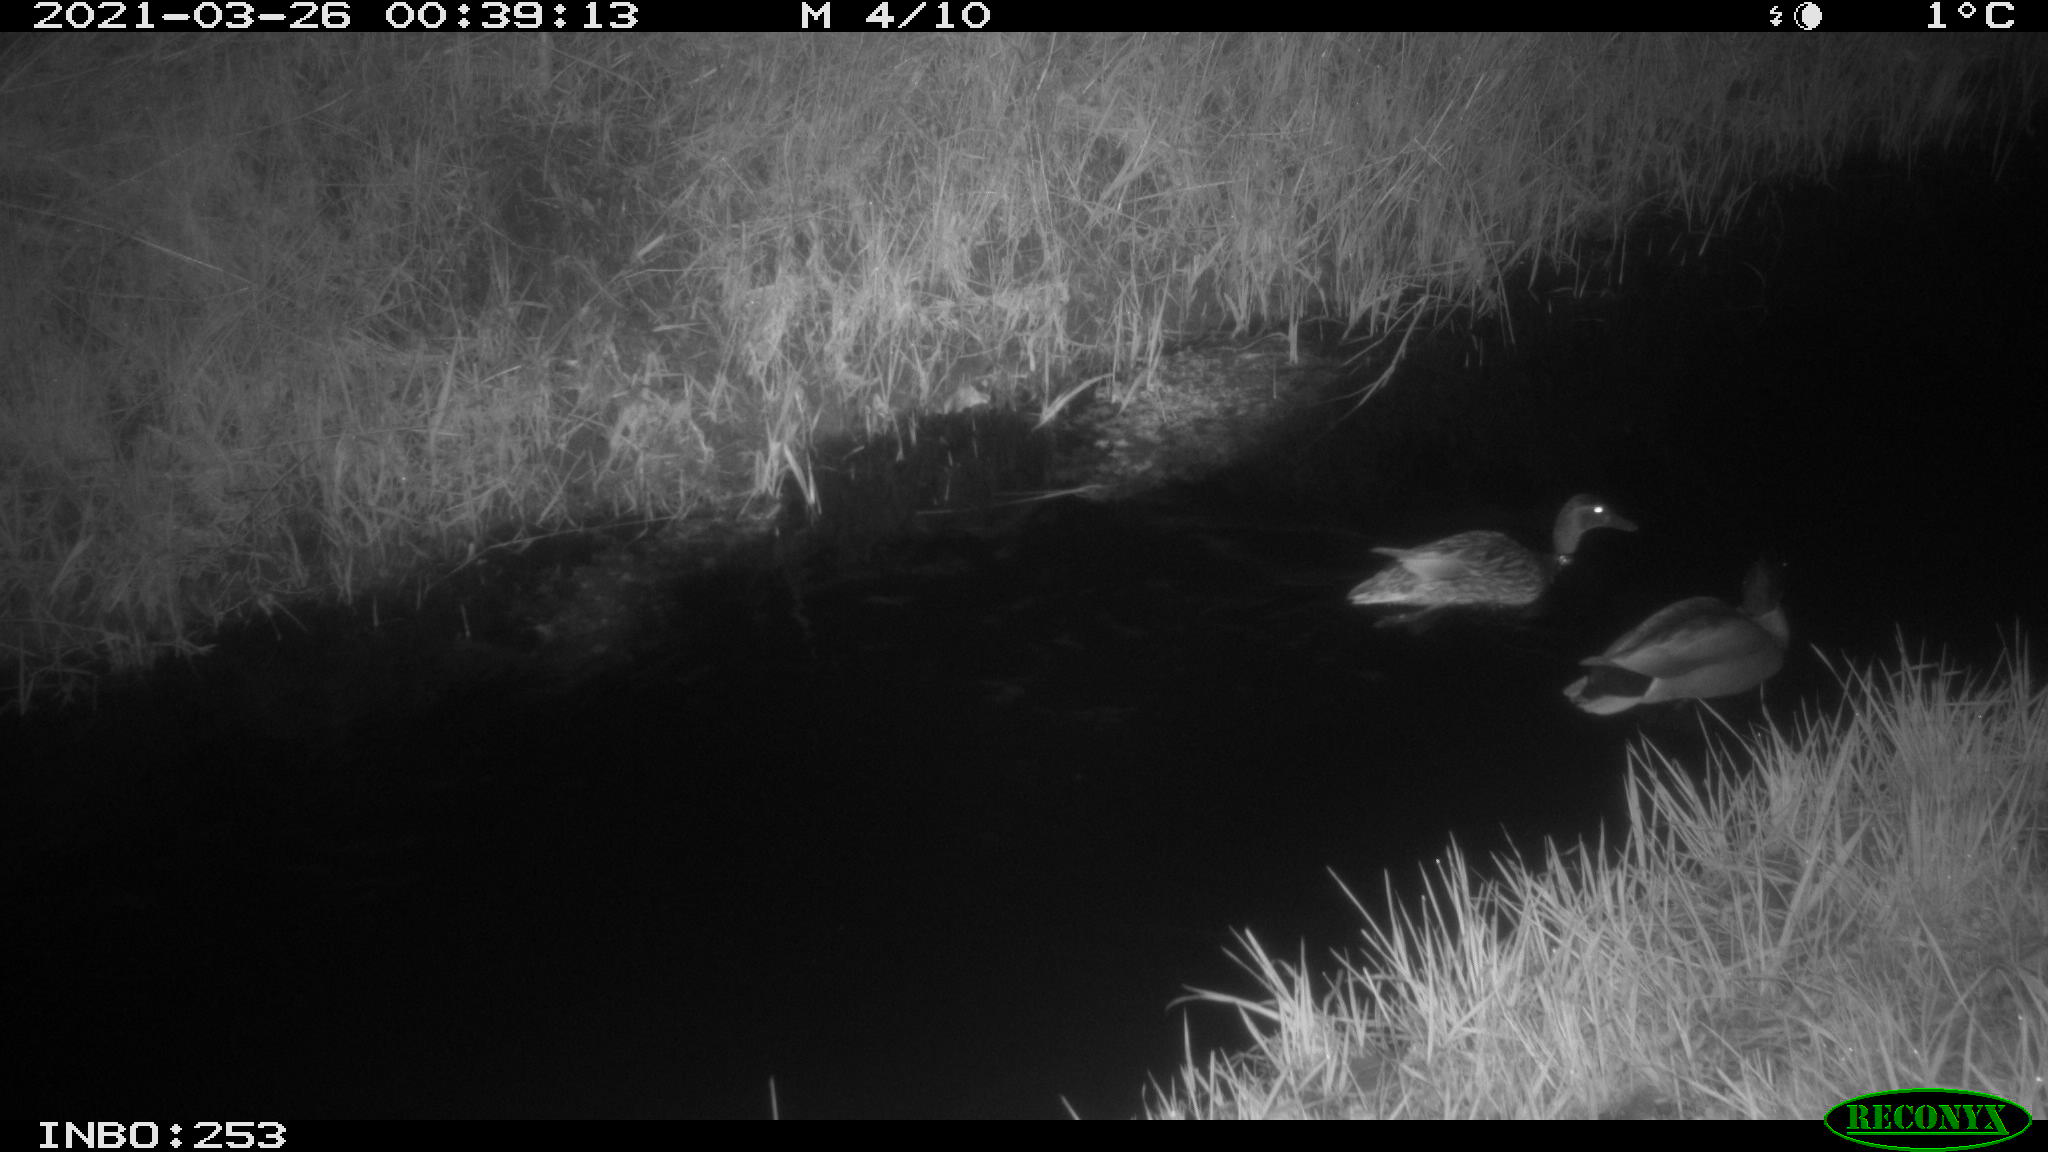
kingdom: Animalia
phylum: Chordata
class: Aves
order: Anseriformes
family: Anatidae
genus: Anas
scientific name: Anas platyrhynchos
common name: Mallard
